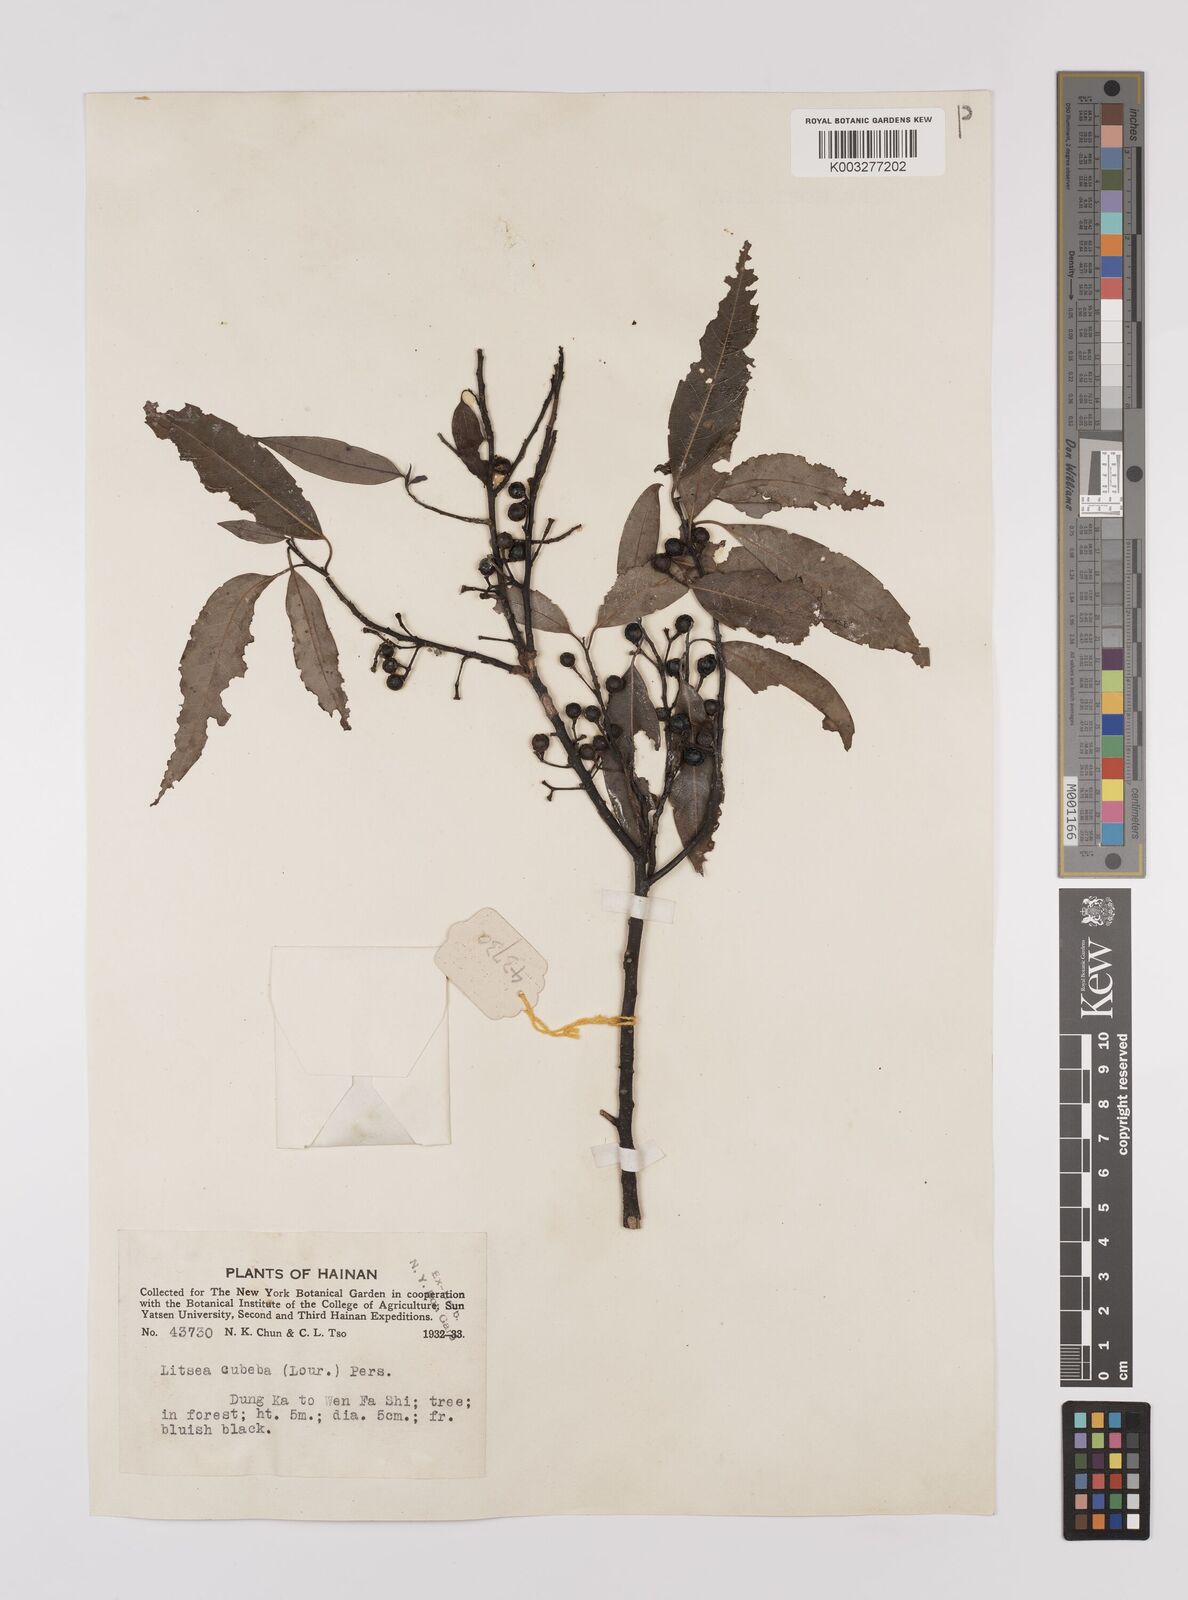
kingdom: Plantae
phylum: Tracheophyta
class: Magnoliopsida
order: Laurales
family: Lauraceae
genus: Litsea
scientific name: Litsea cubeba
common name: Mountain-pepper
